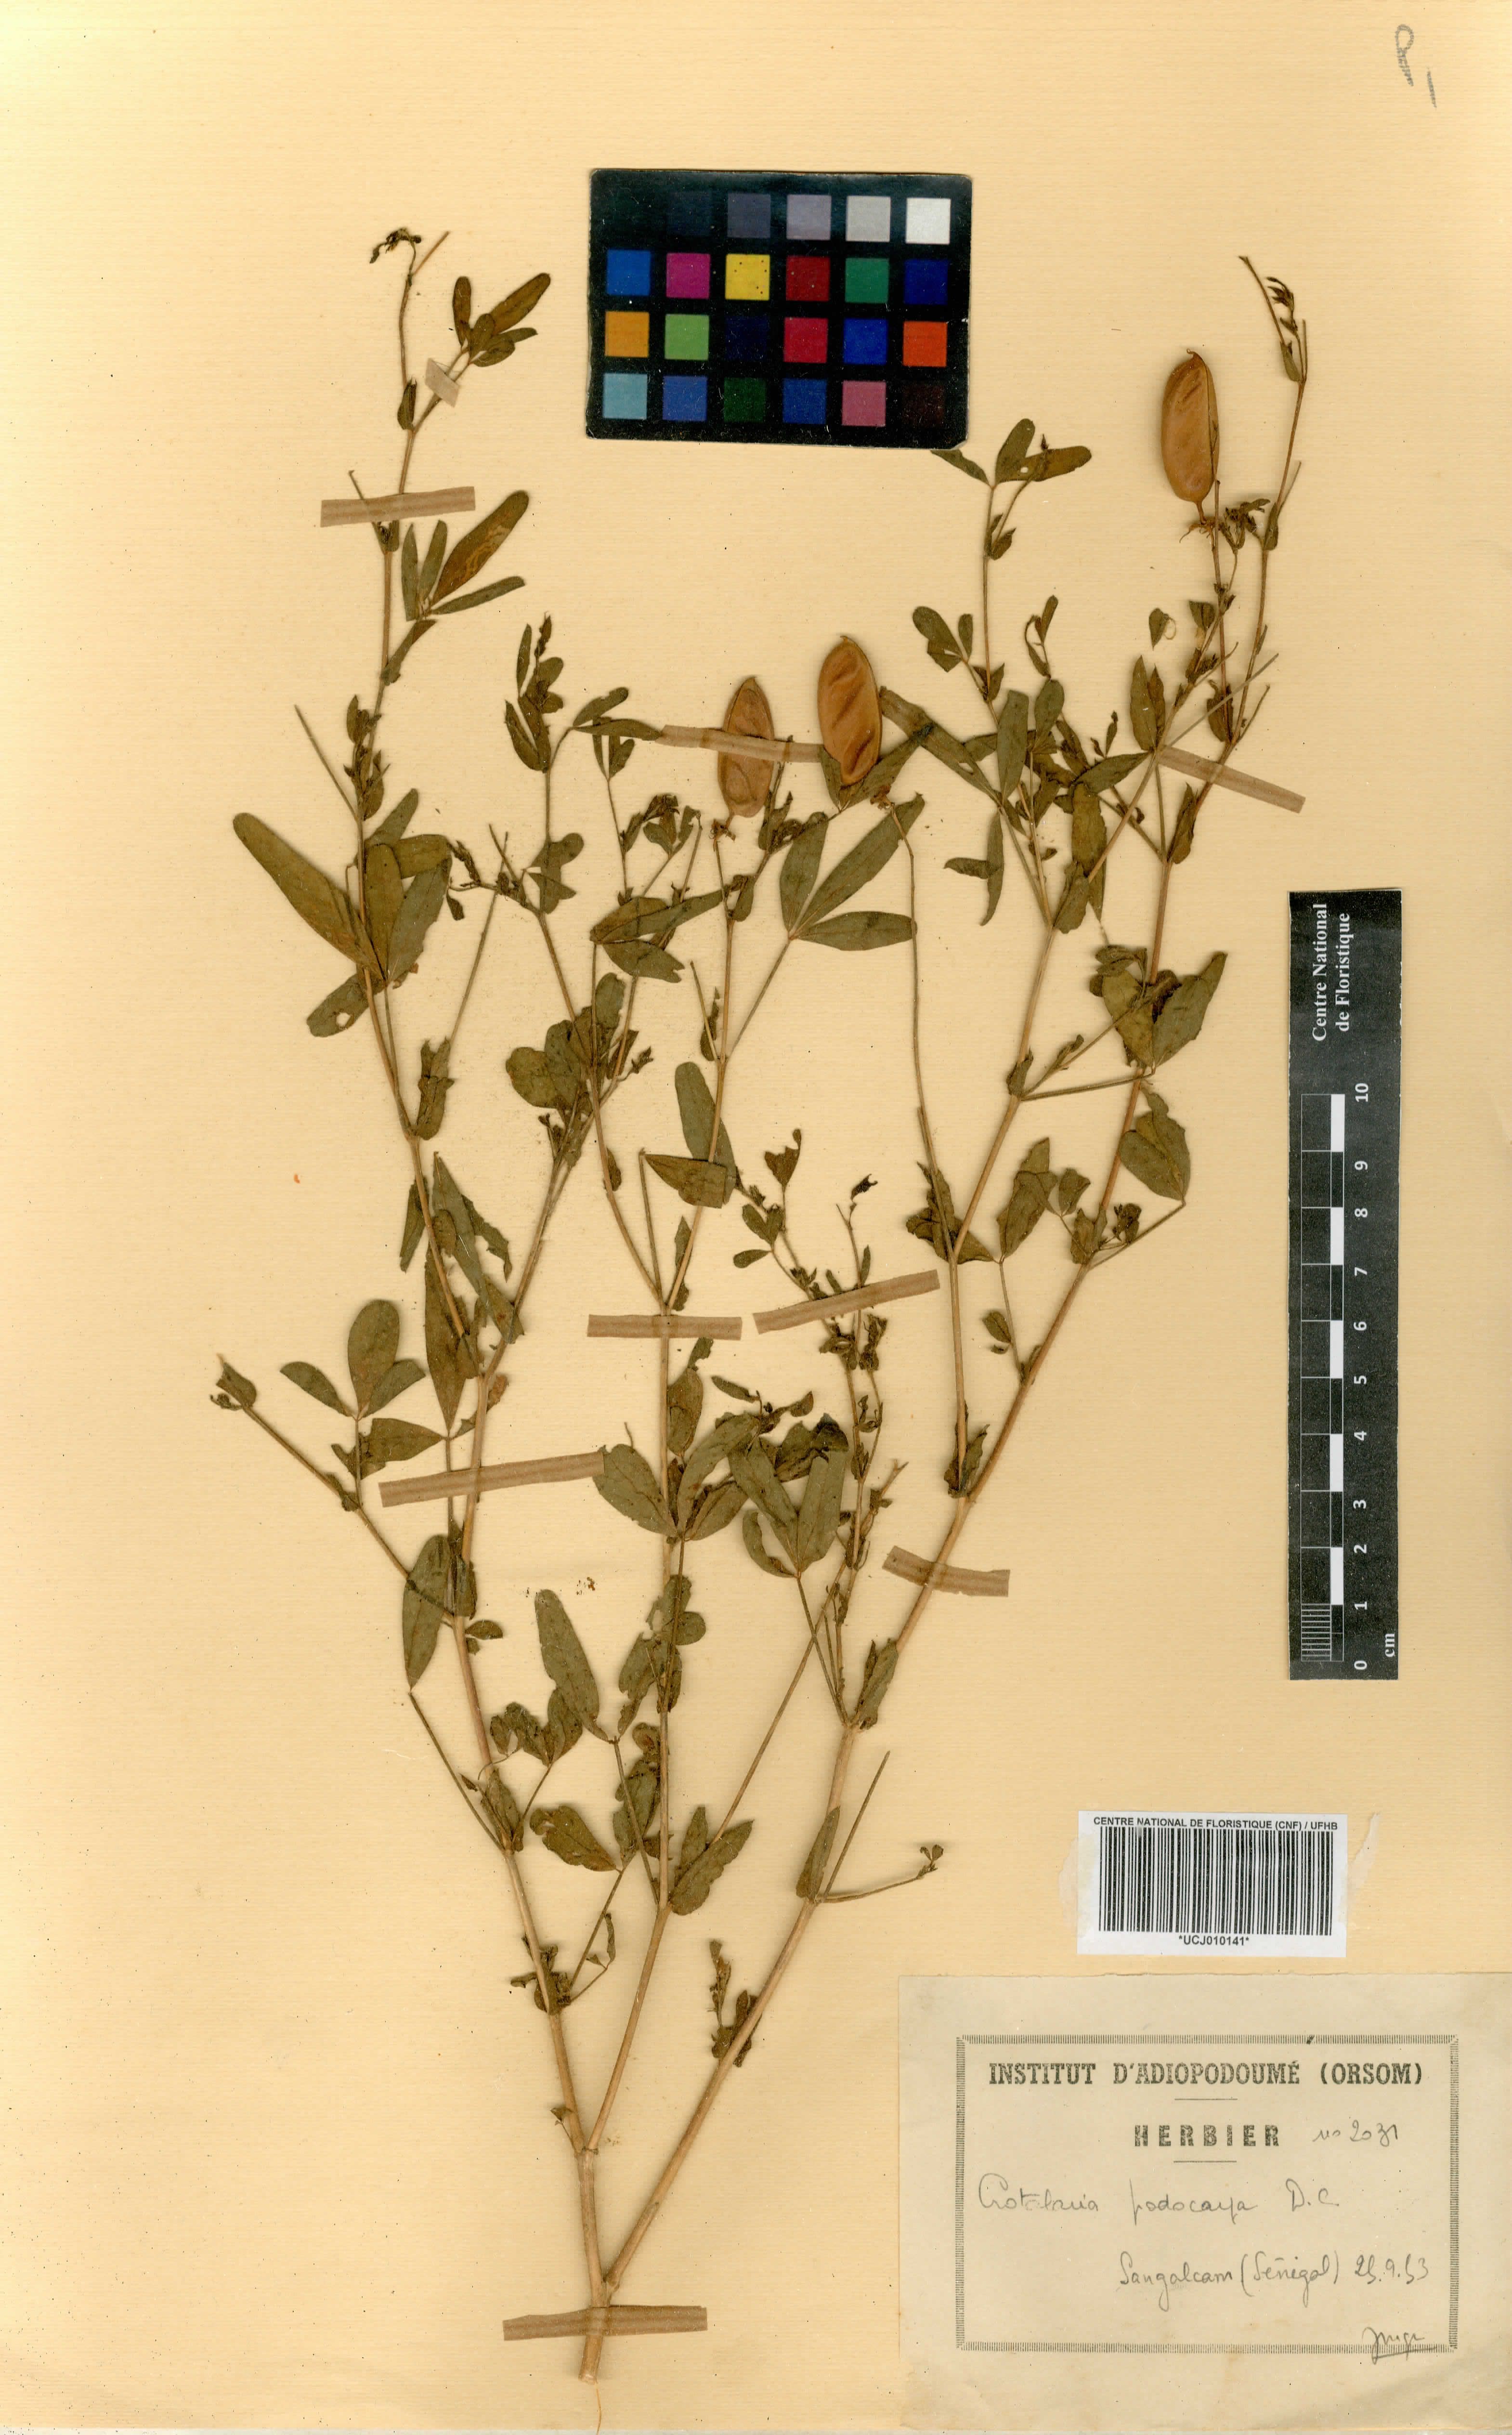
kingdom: Plantae
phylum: Tracheophyta
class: Magnoliopsida
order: Fabales
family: Fabaceae
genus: Crotalaria
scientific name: Crotalaria podocarpa
